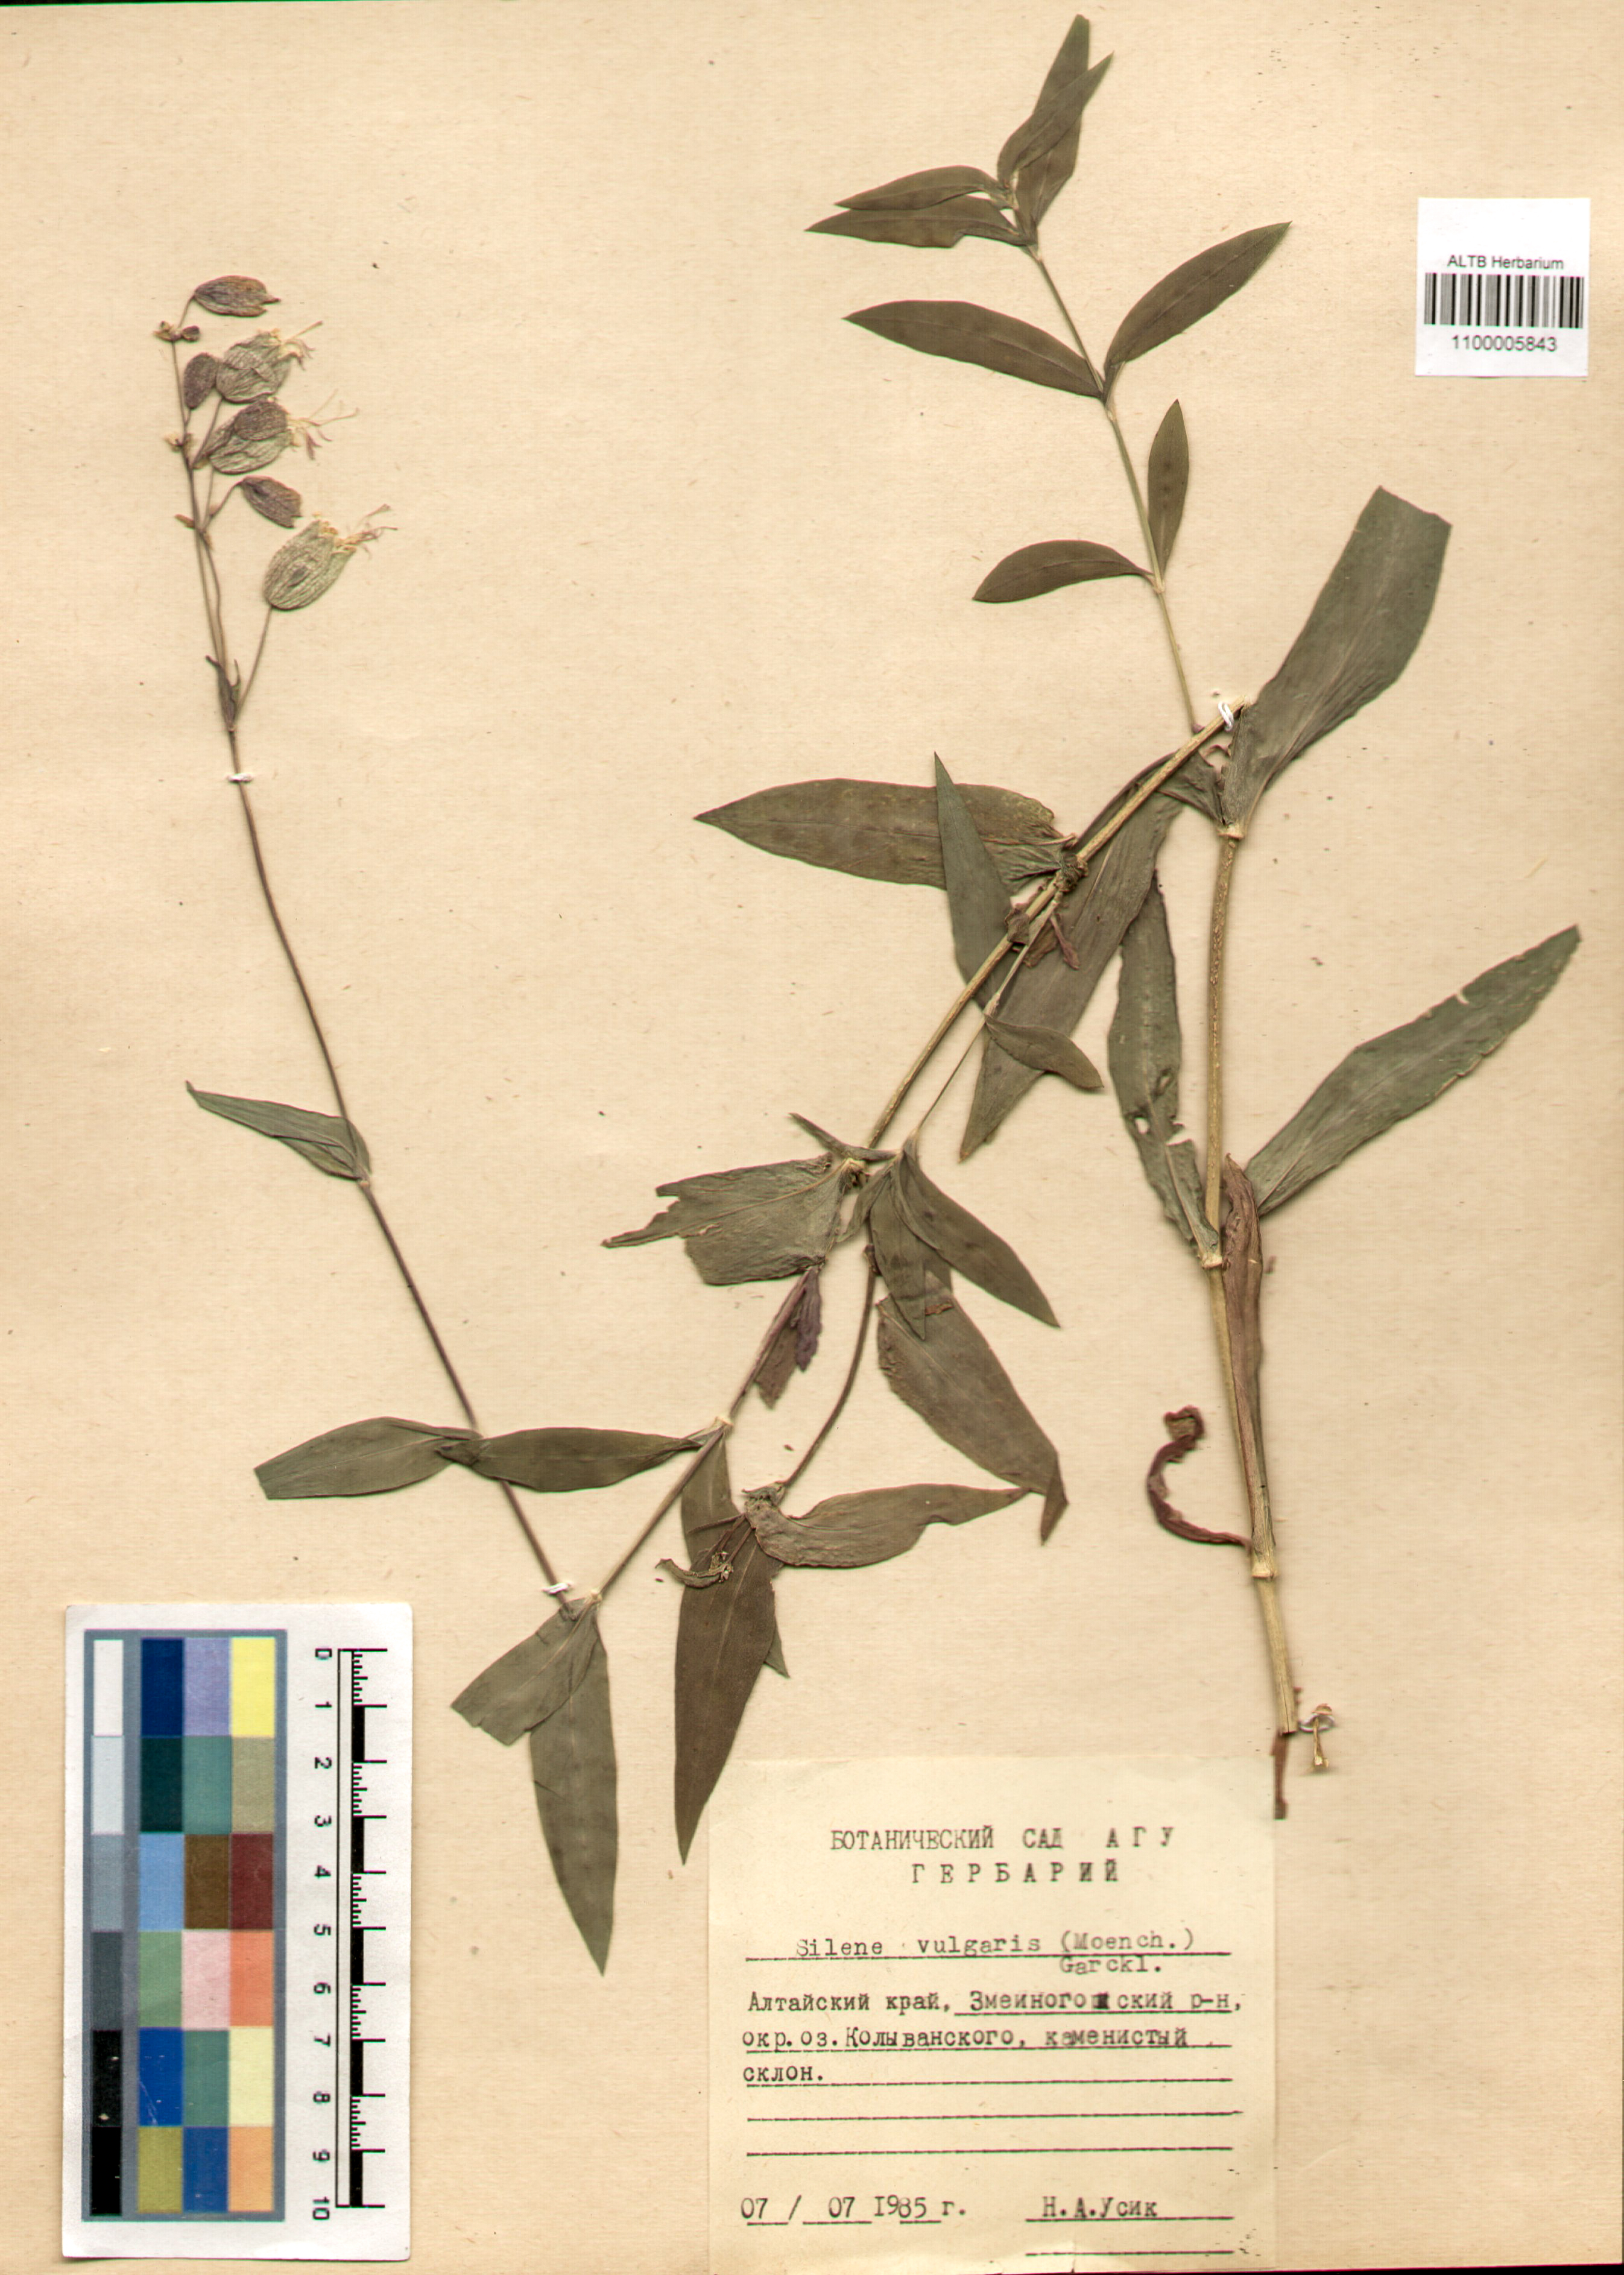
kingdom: Plantae
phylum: Tracheophyta
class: Magnoliopsida
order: Caryophyllales
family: Caryophyllaceae
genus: Silene
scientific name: Silene vulgaris
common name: Bladder campion
